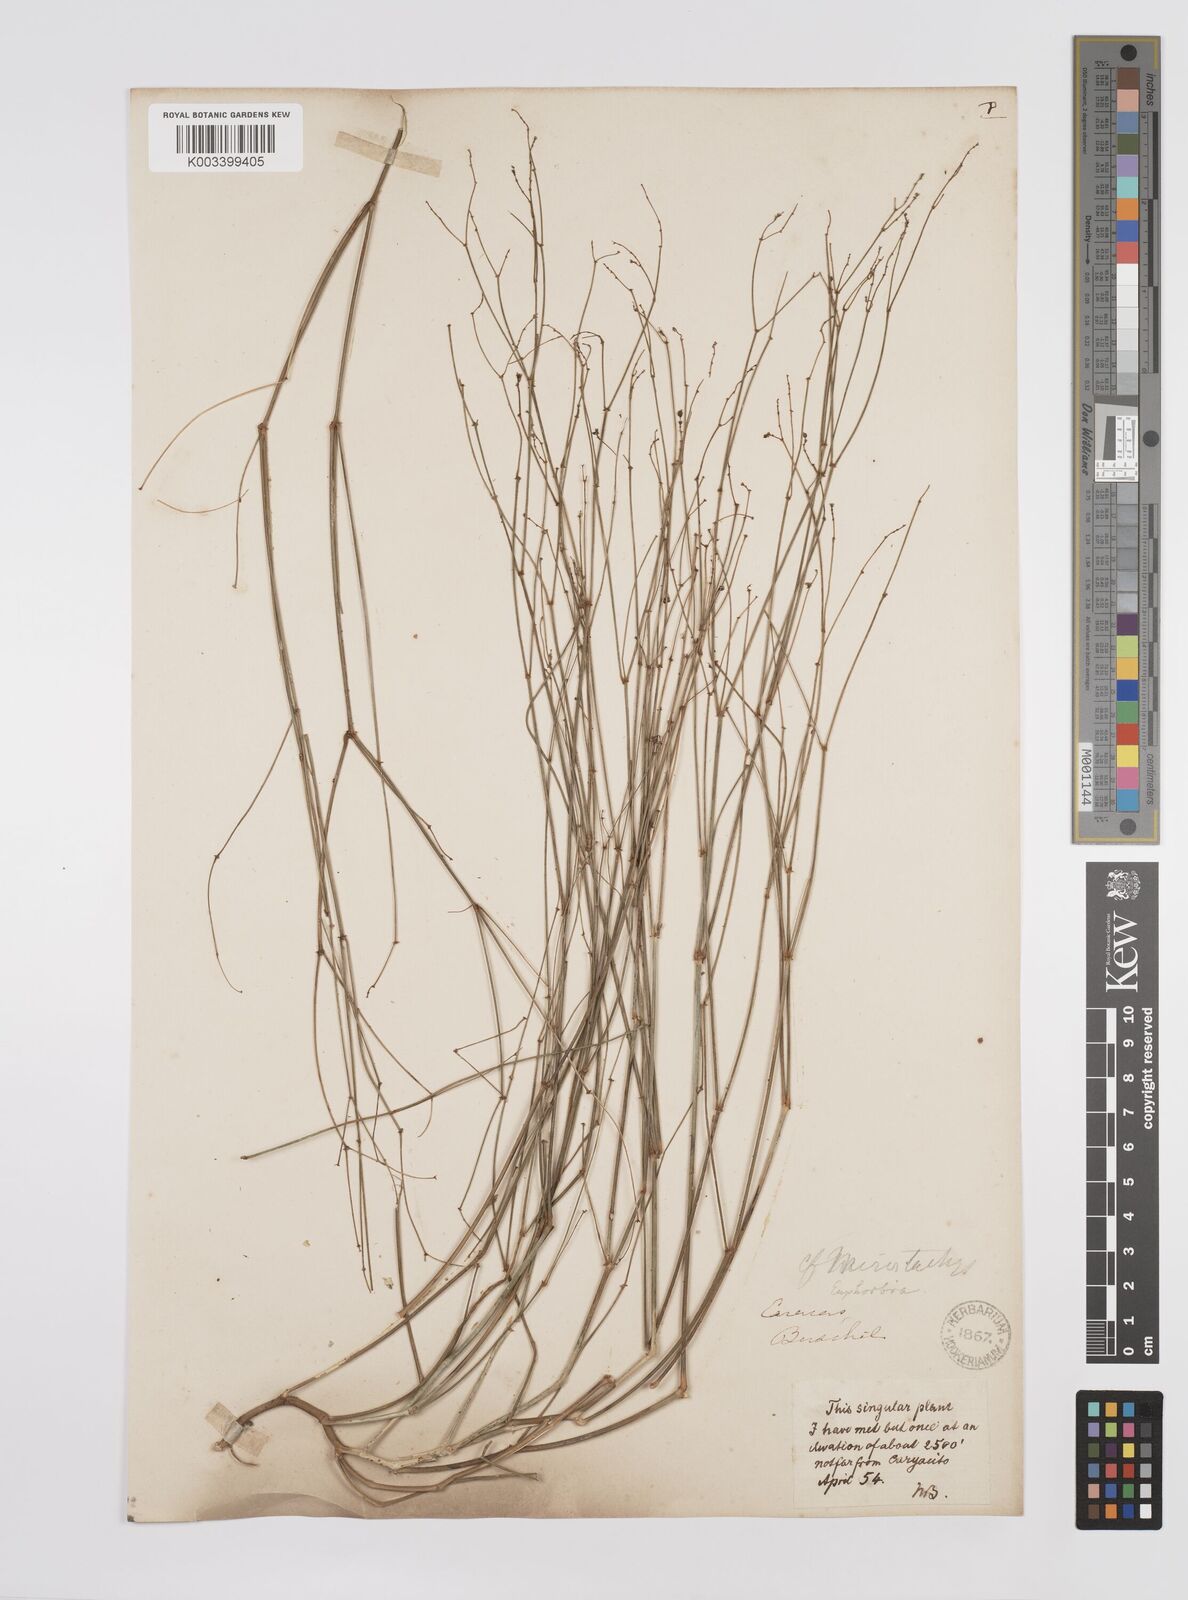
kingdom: Plantae
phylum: Tracheophyta
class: Magnoliopsida
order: Malpighiales
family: Euphorbiaceae
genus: Euphorbia
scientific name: Euphorbia
